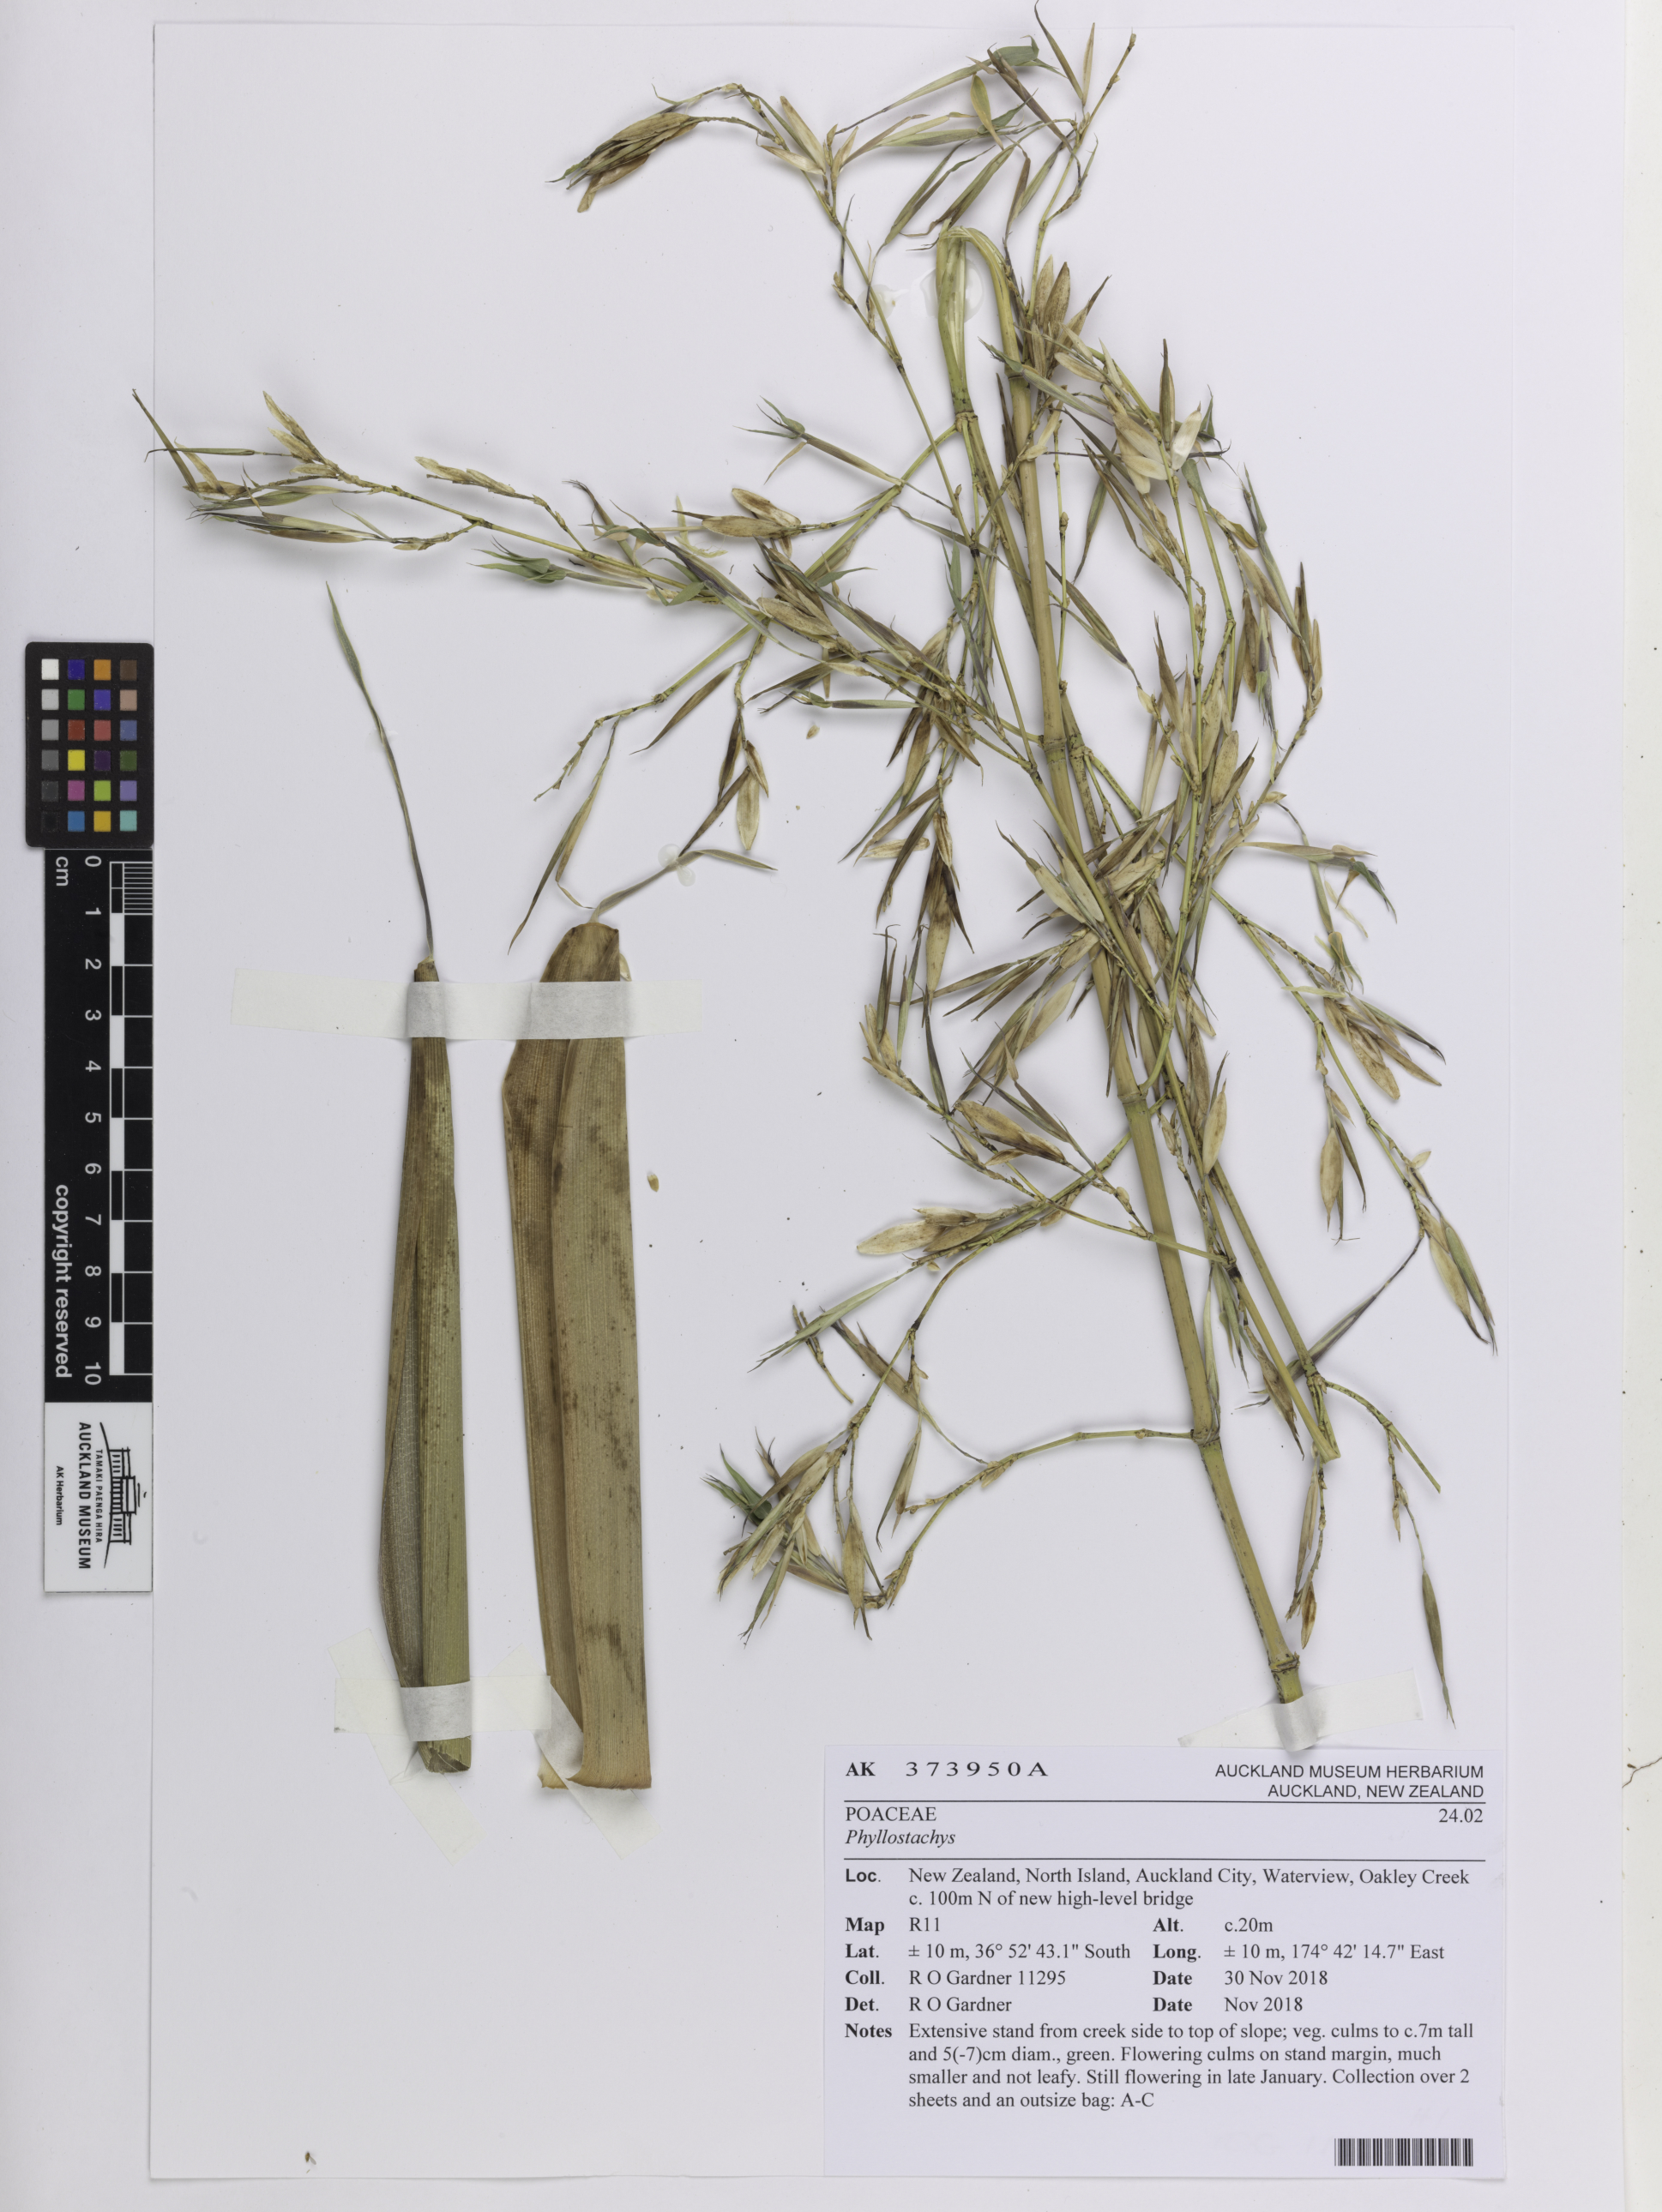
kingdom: Plantae
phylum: Tracheophyta
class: Liliopsida
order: Poales
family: Poaceae
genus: Phyllostachys
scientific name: Phyllostachys
